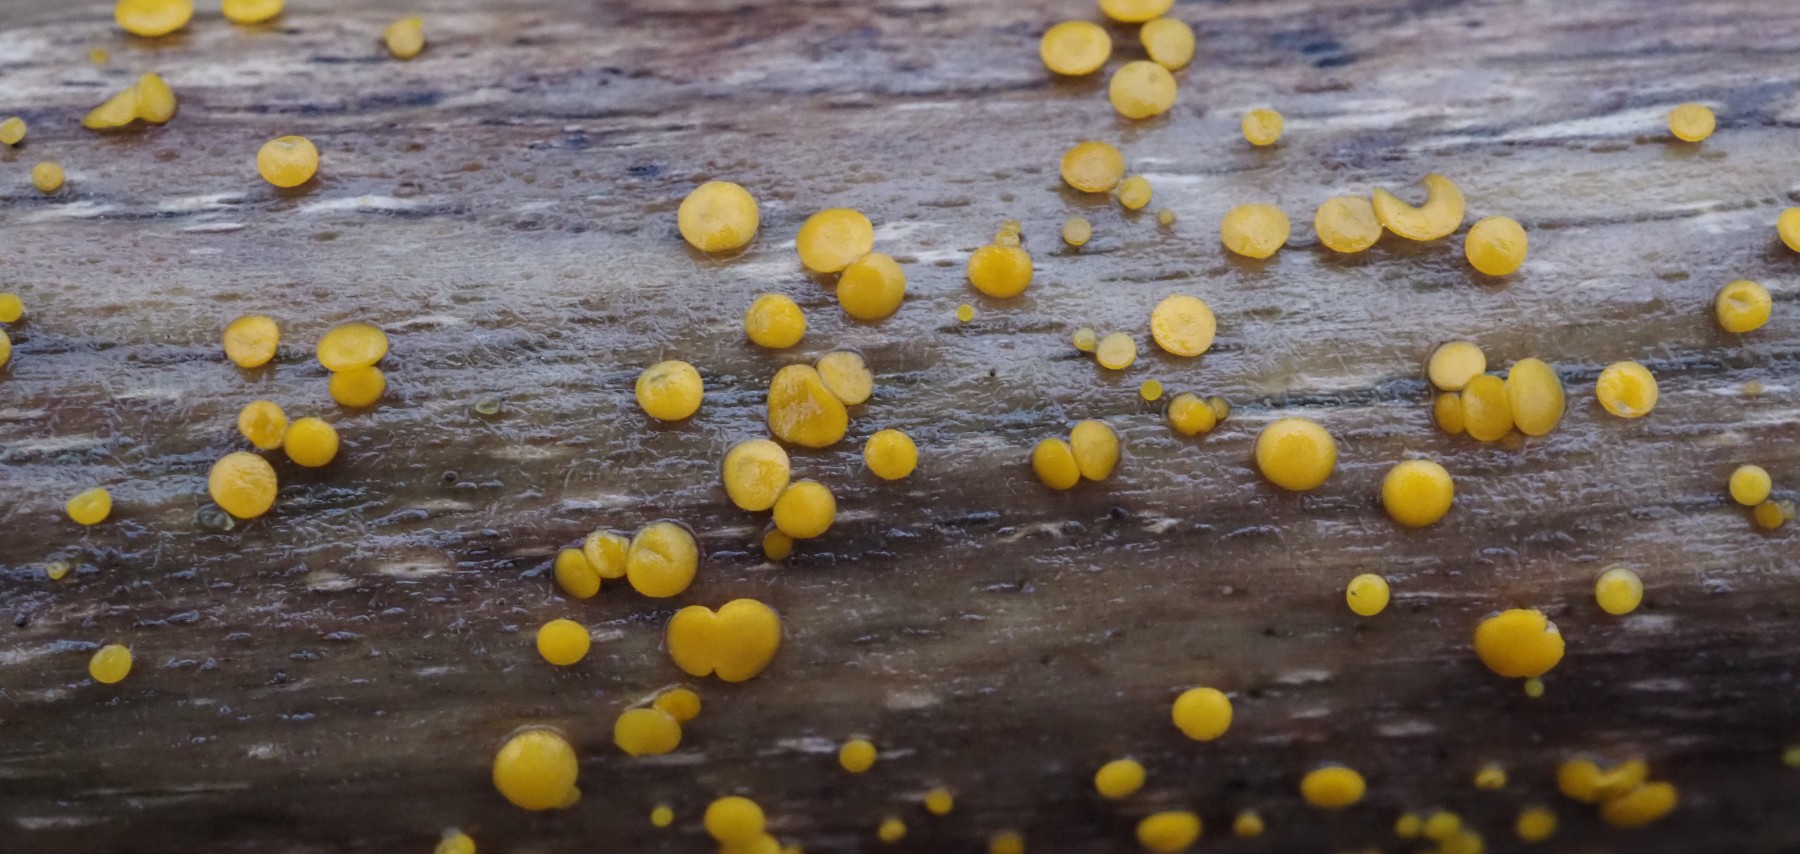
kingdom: Fungi
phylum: Ascomycota
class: Leotiomycetes
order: Helotiales
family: Pezizellaceae
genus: Calycina
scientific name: Calycina citrina
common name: almindelig gulskive
